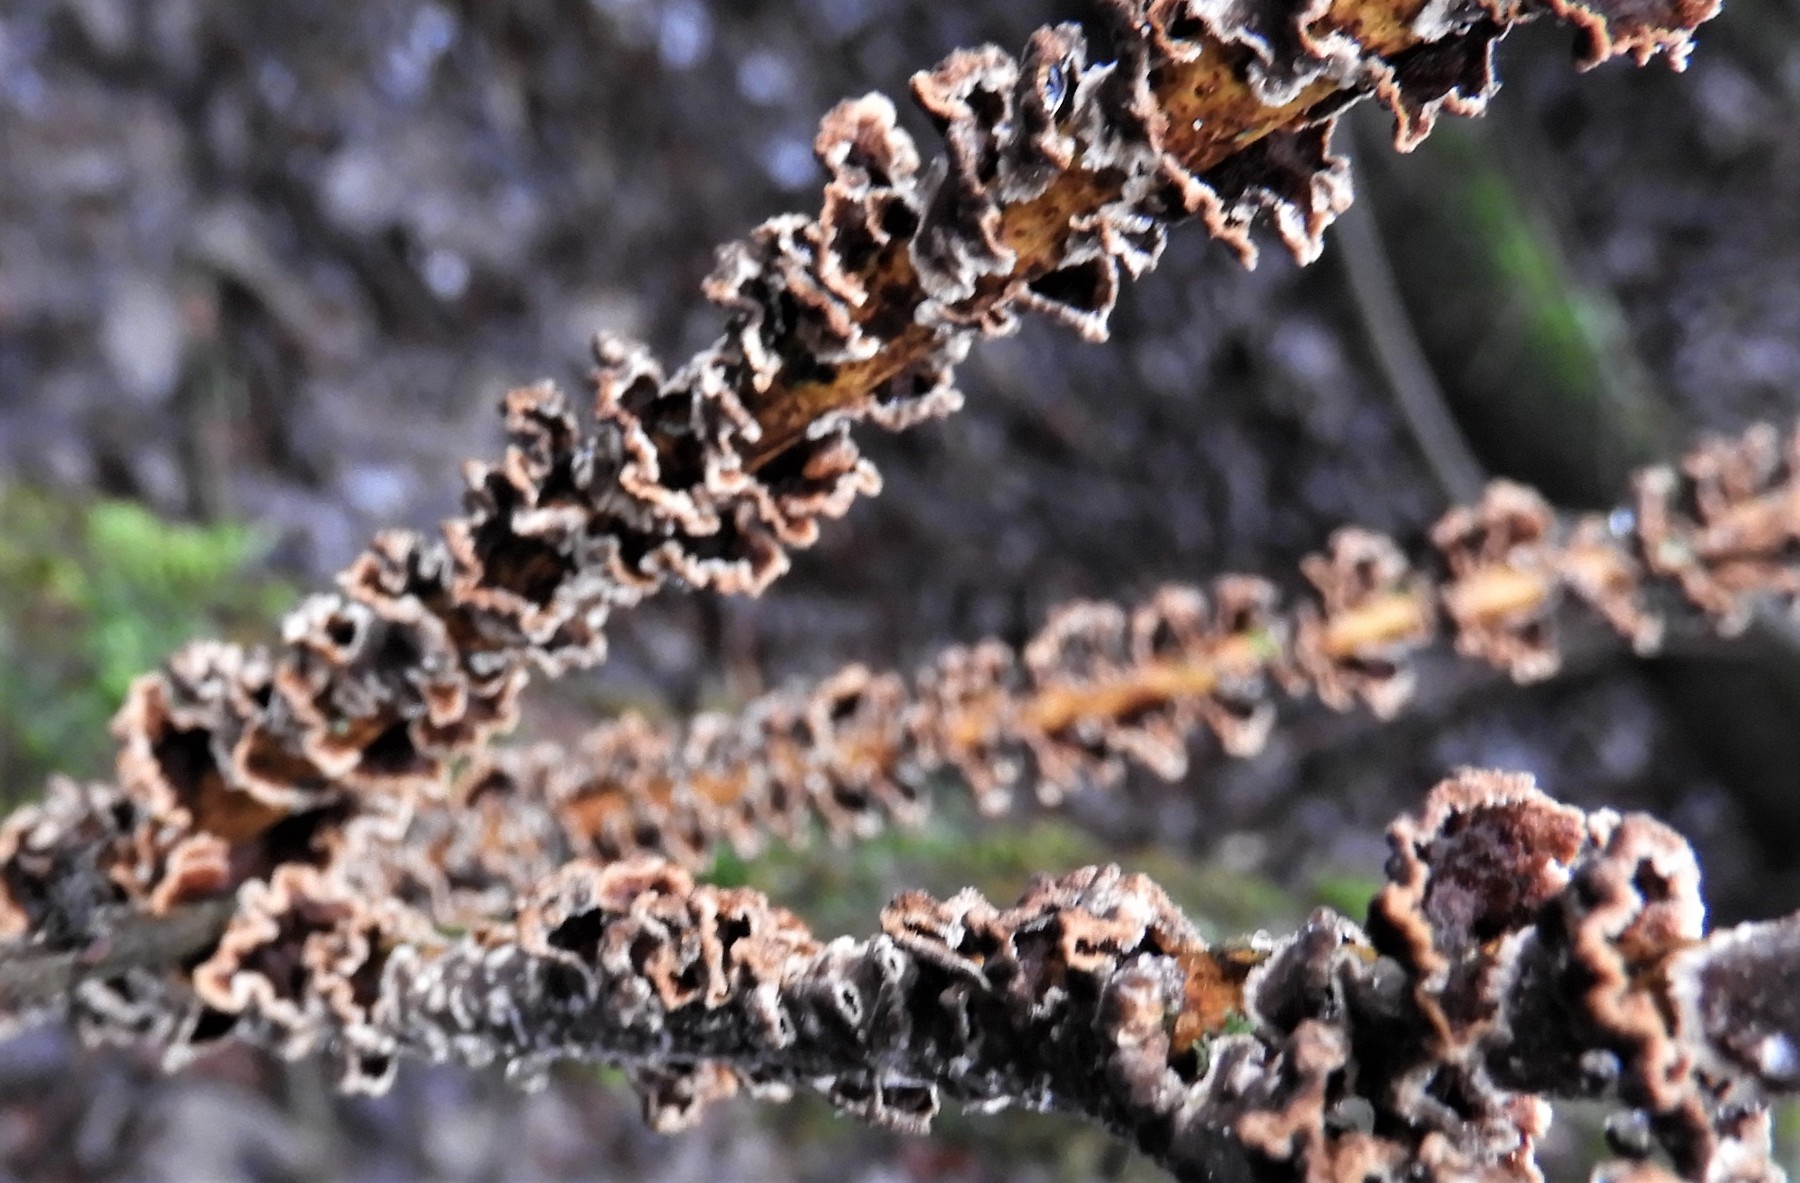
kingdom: Fungi
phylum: Basidiomycota
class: Agaricomycetes
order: Hymenochaetales
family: Hymenochaetaceae
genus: Hydnoporia
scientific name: Hydnoporia tabacina
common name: tobaksbrun ruslædersvamp
